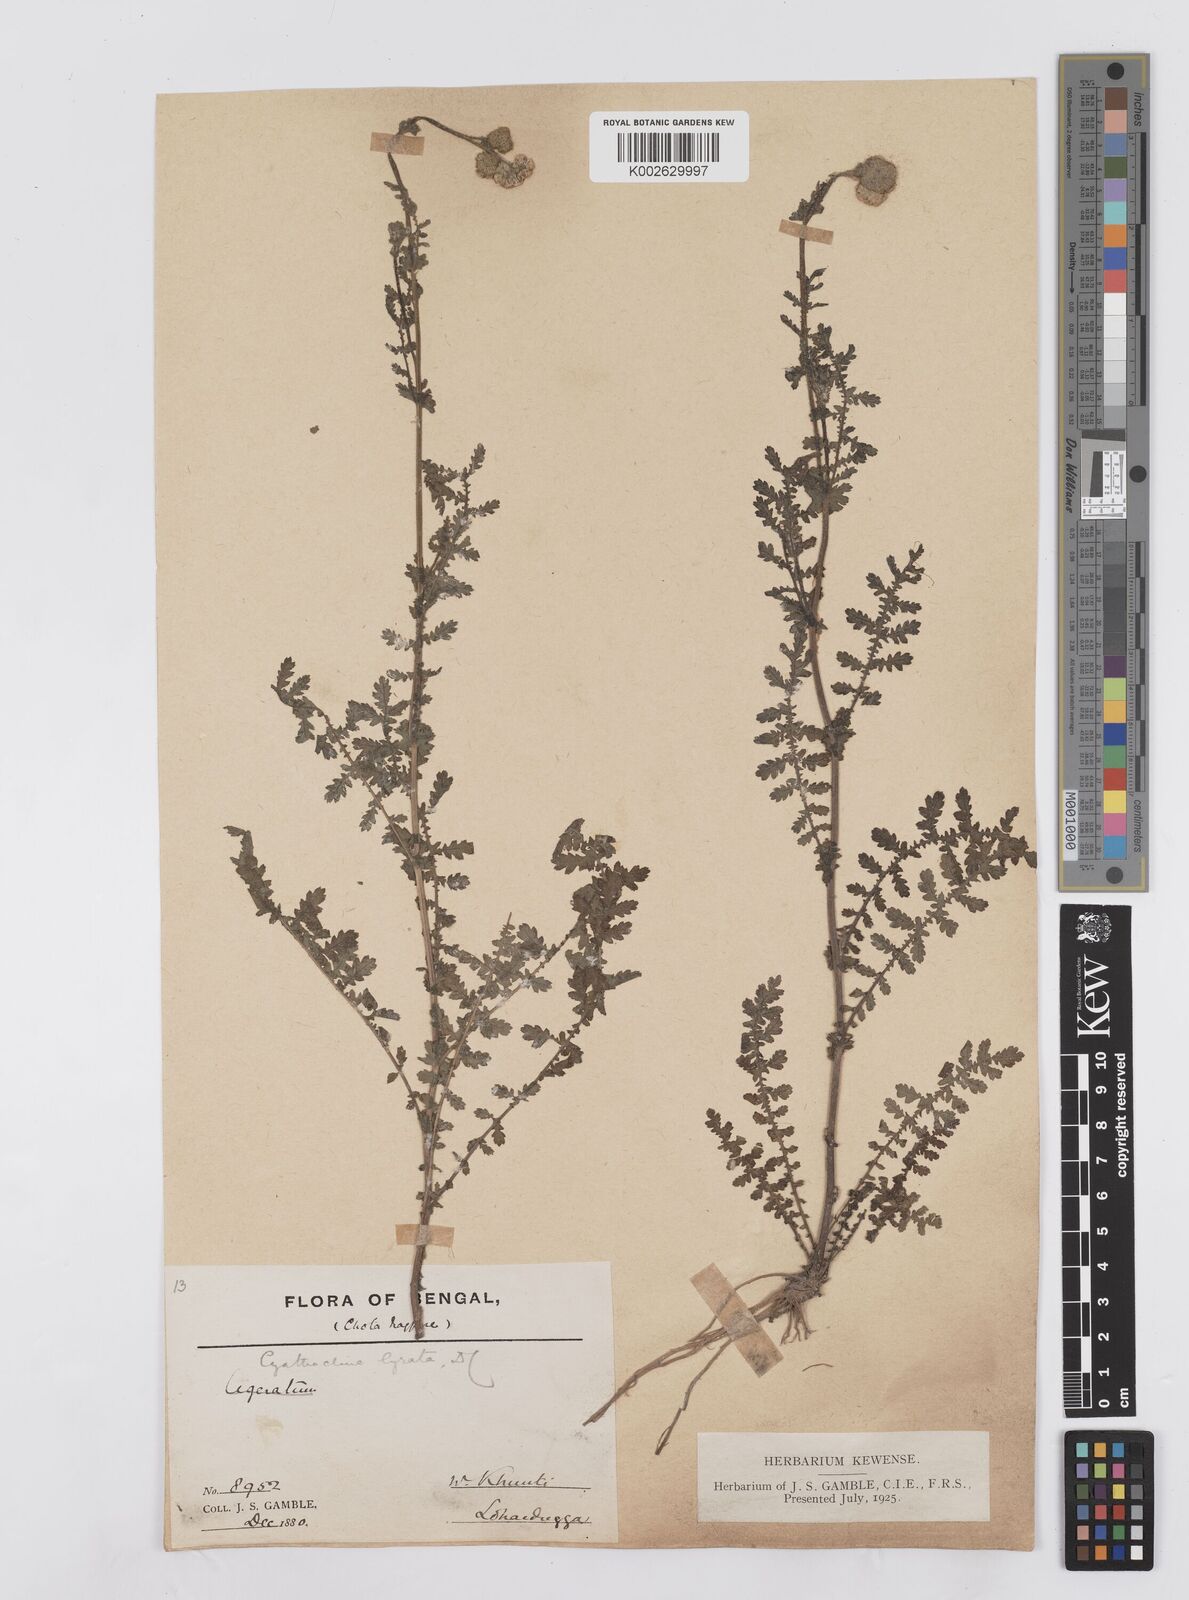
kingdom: Plantae
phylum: Tracheophyta
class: Magnoliopsida
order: Asterales
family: Asteraceae
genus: Cyathocline
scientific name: Cyathocline purpurea
